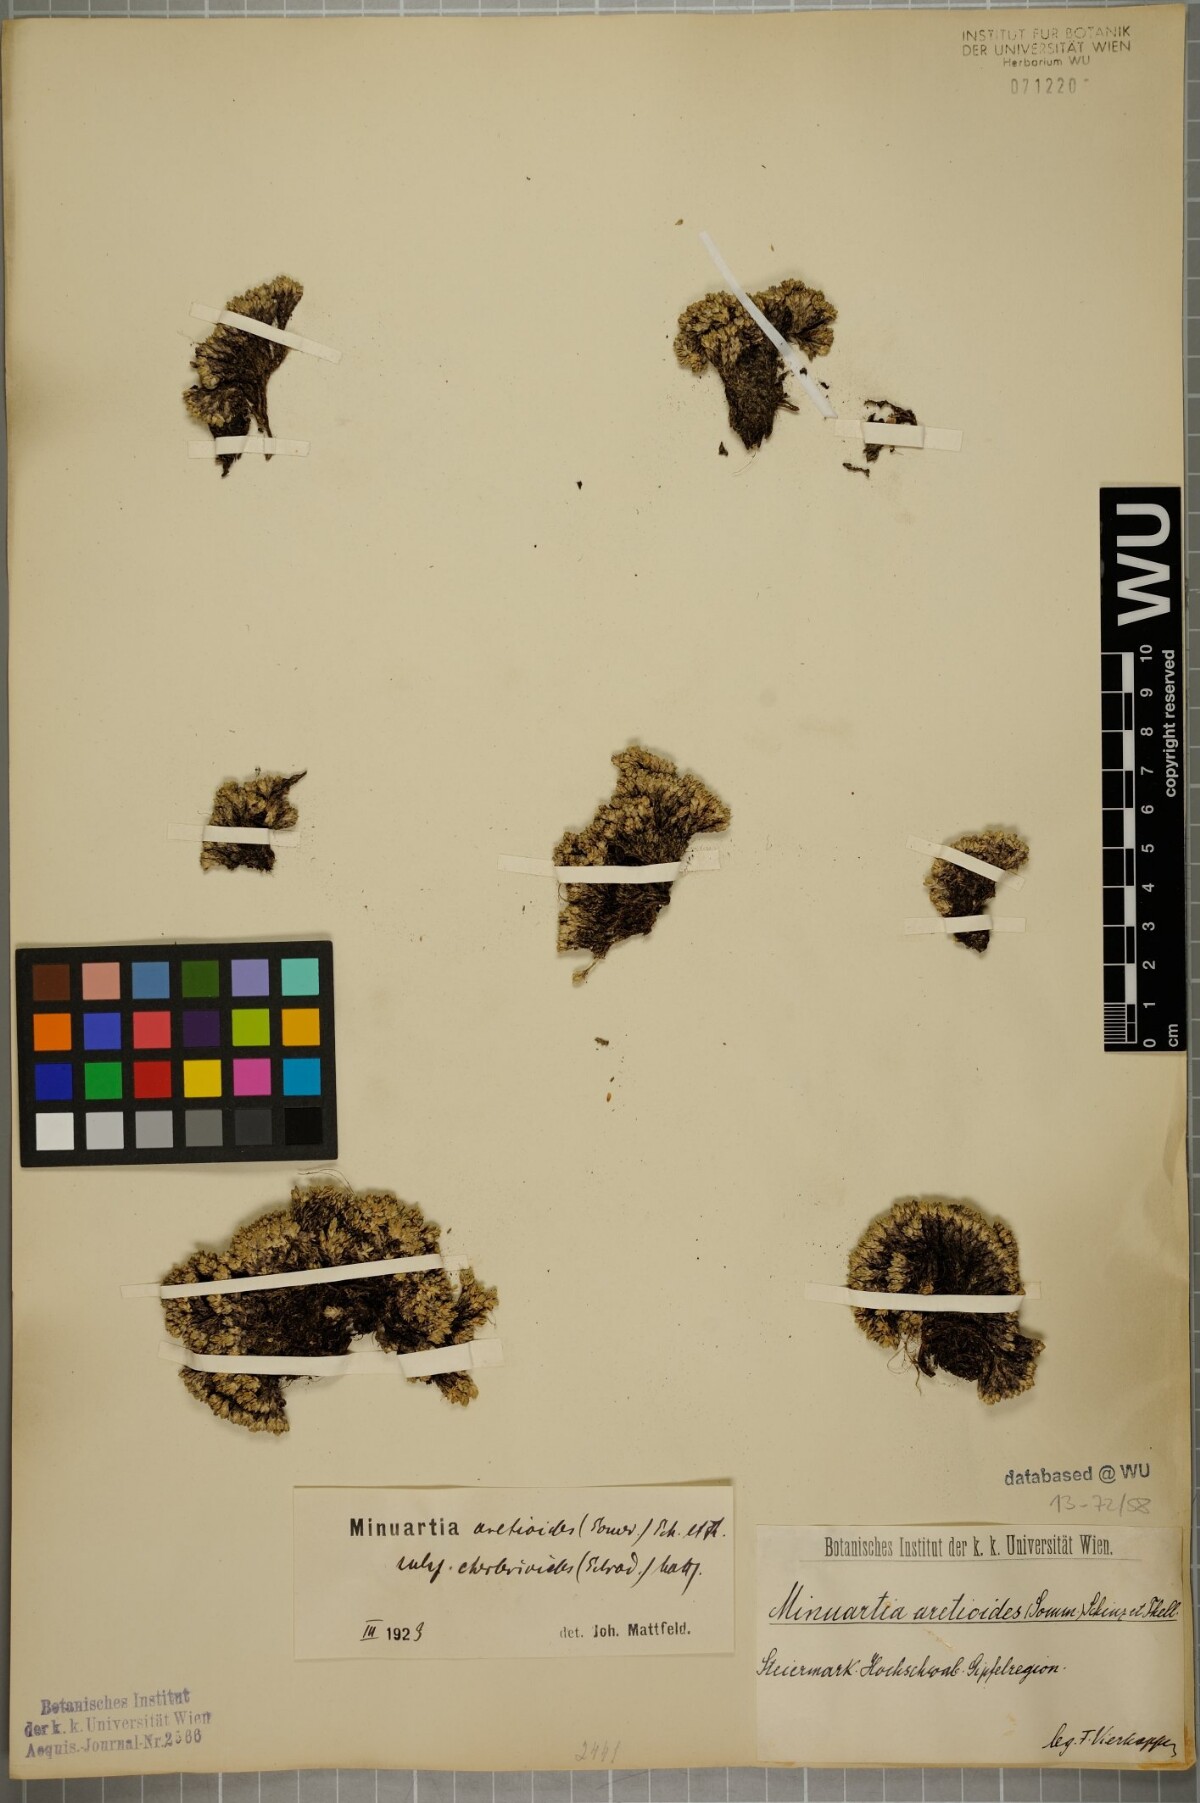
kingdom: Plantae
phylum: Tracheophyta
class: Magnoliopsida
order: Caryophyllales
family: Caryophyllaceae
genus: Facchinia
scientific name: Facchinia cherlerioides
